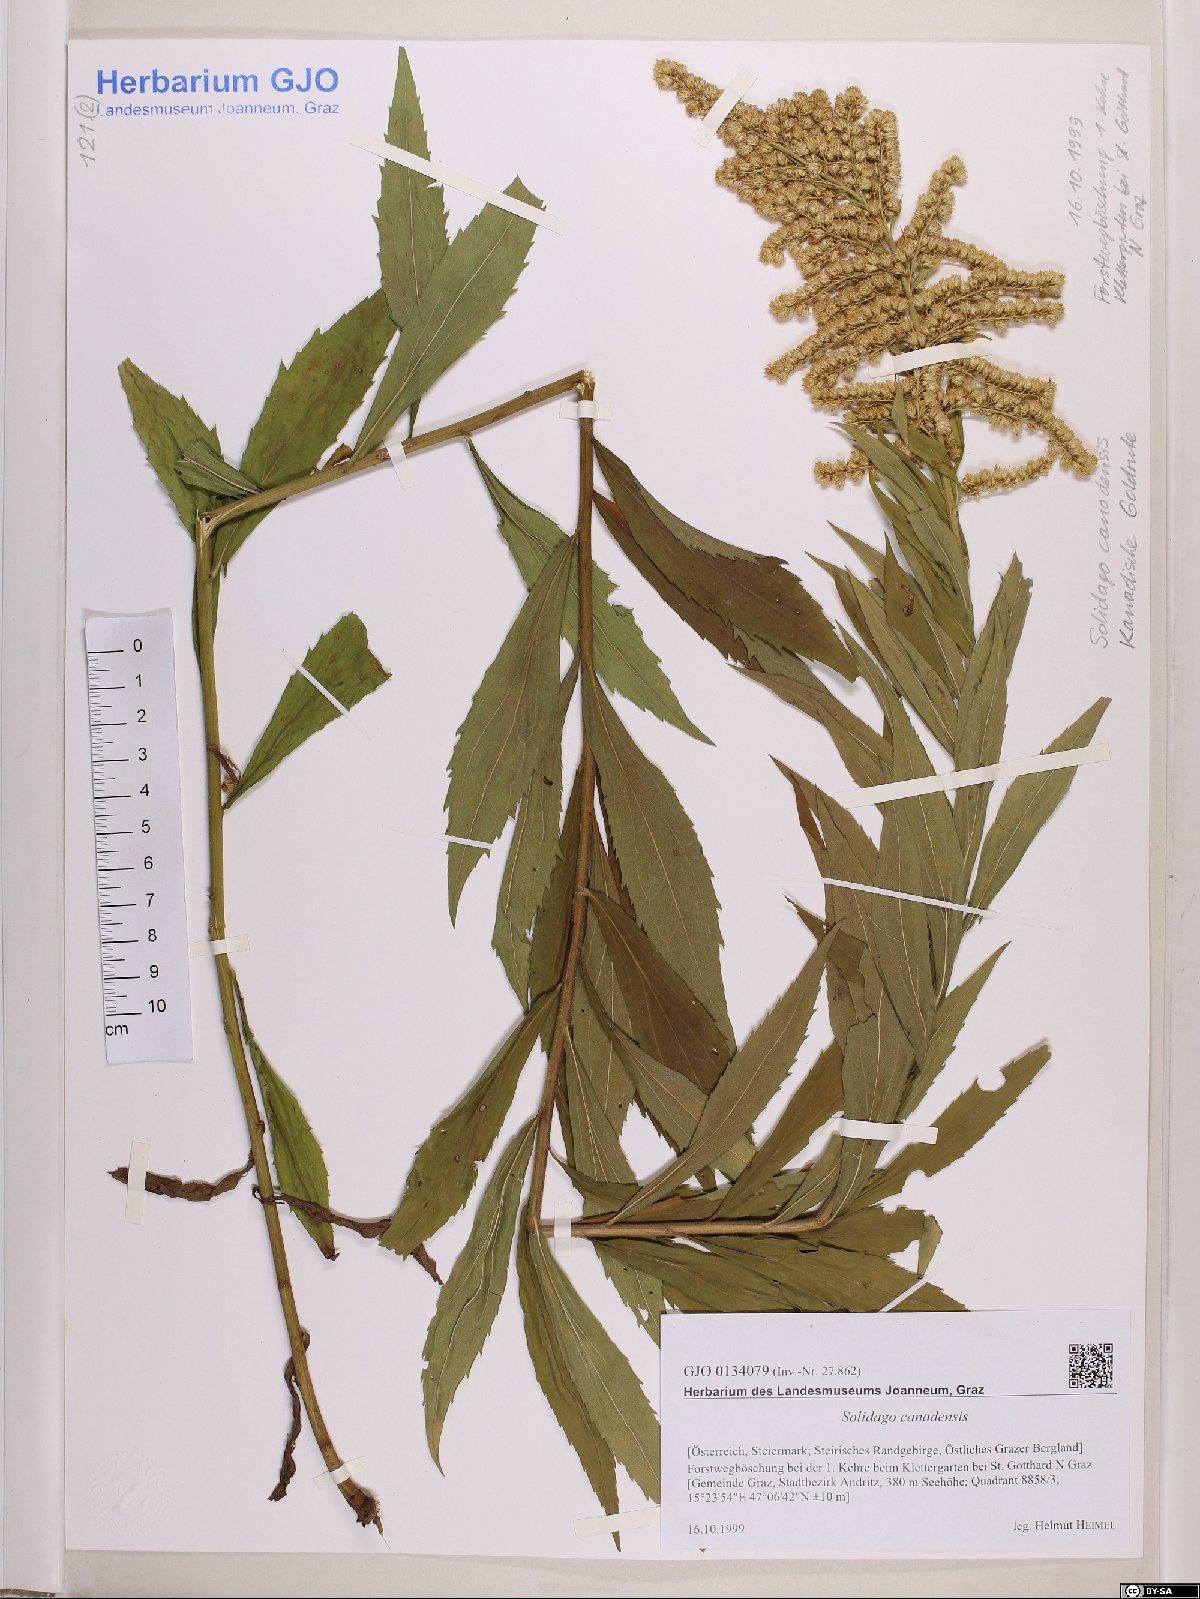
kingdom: Plantae
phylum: Tracheophyta
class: Magnoliopsida
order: Asterales
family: Asteraceae
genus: Solidago
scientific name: Solidago canadensis
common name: Canada goldenrod
